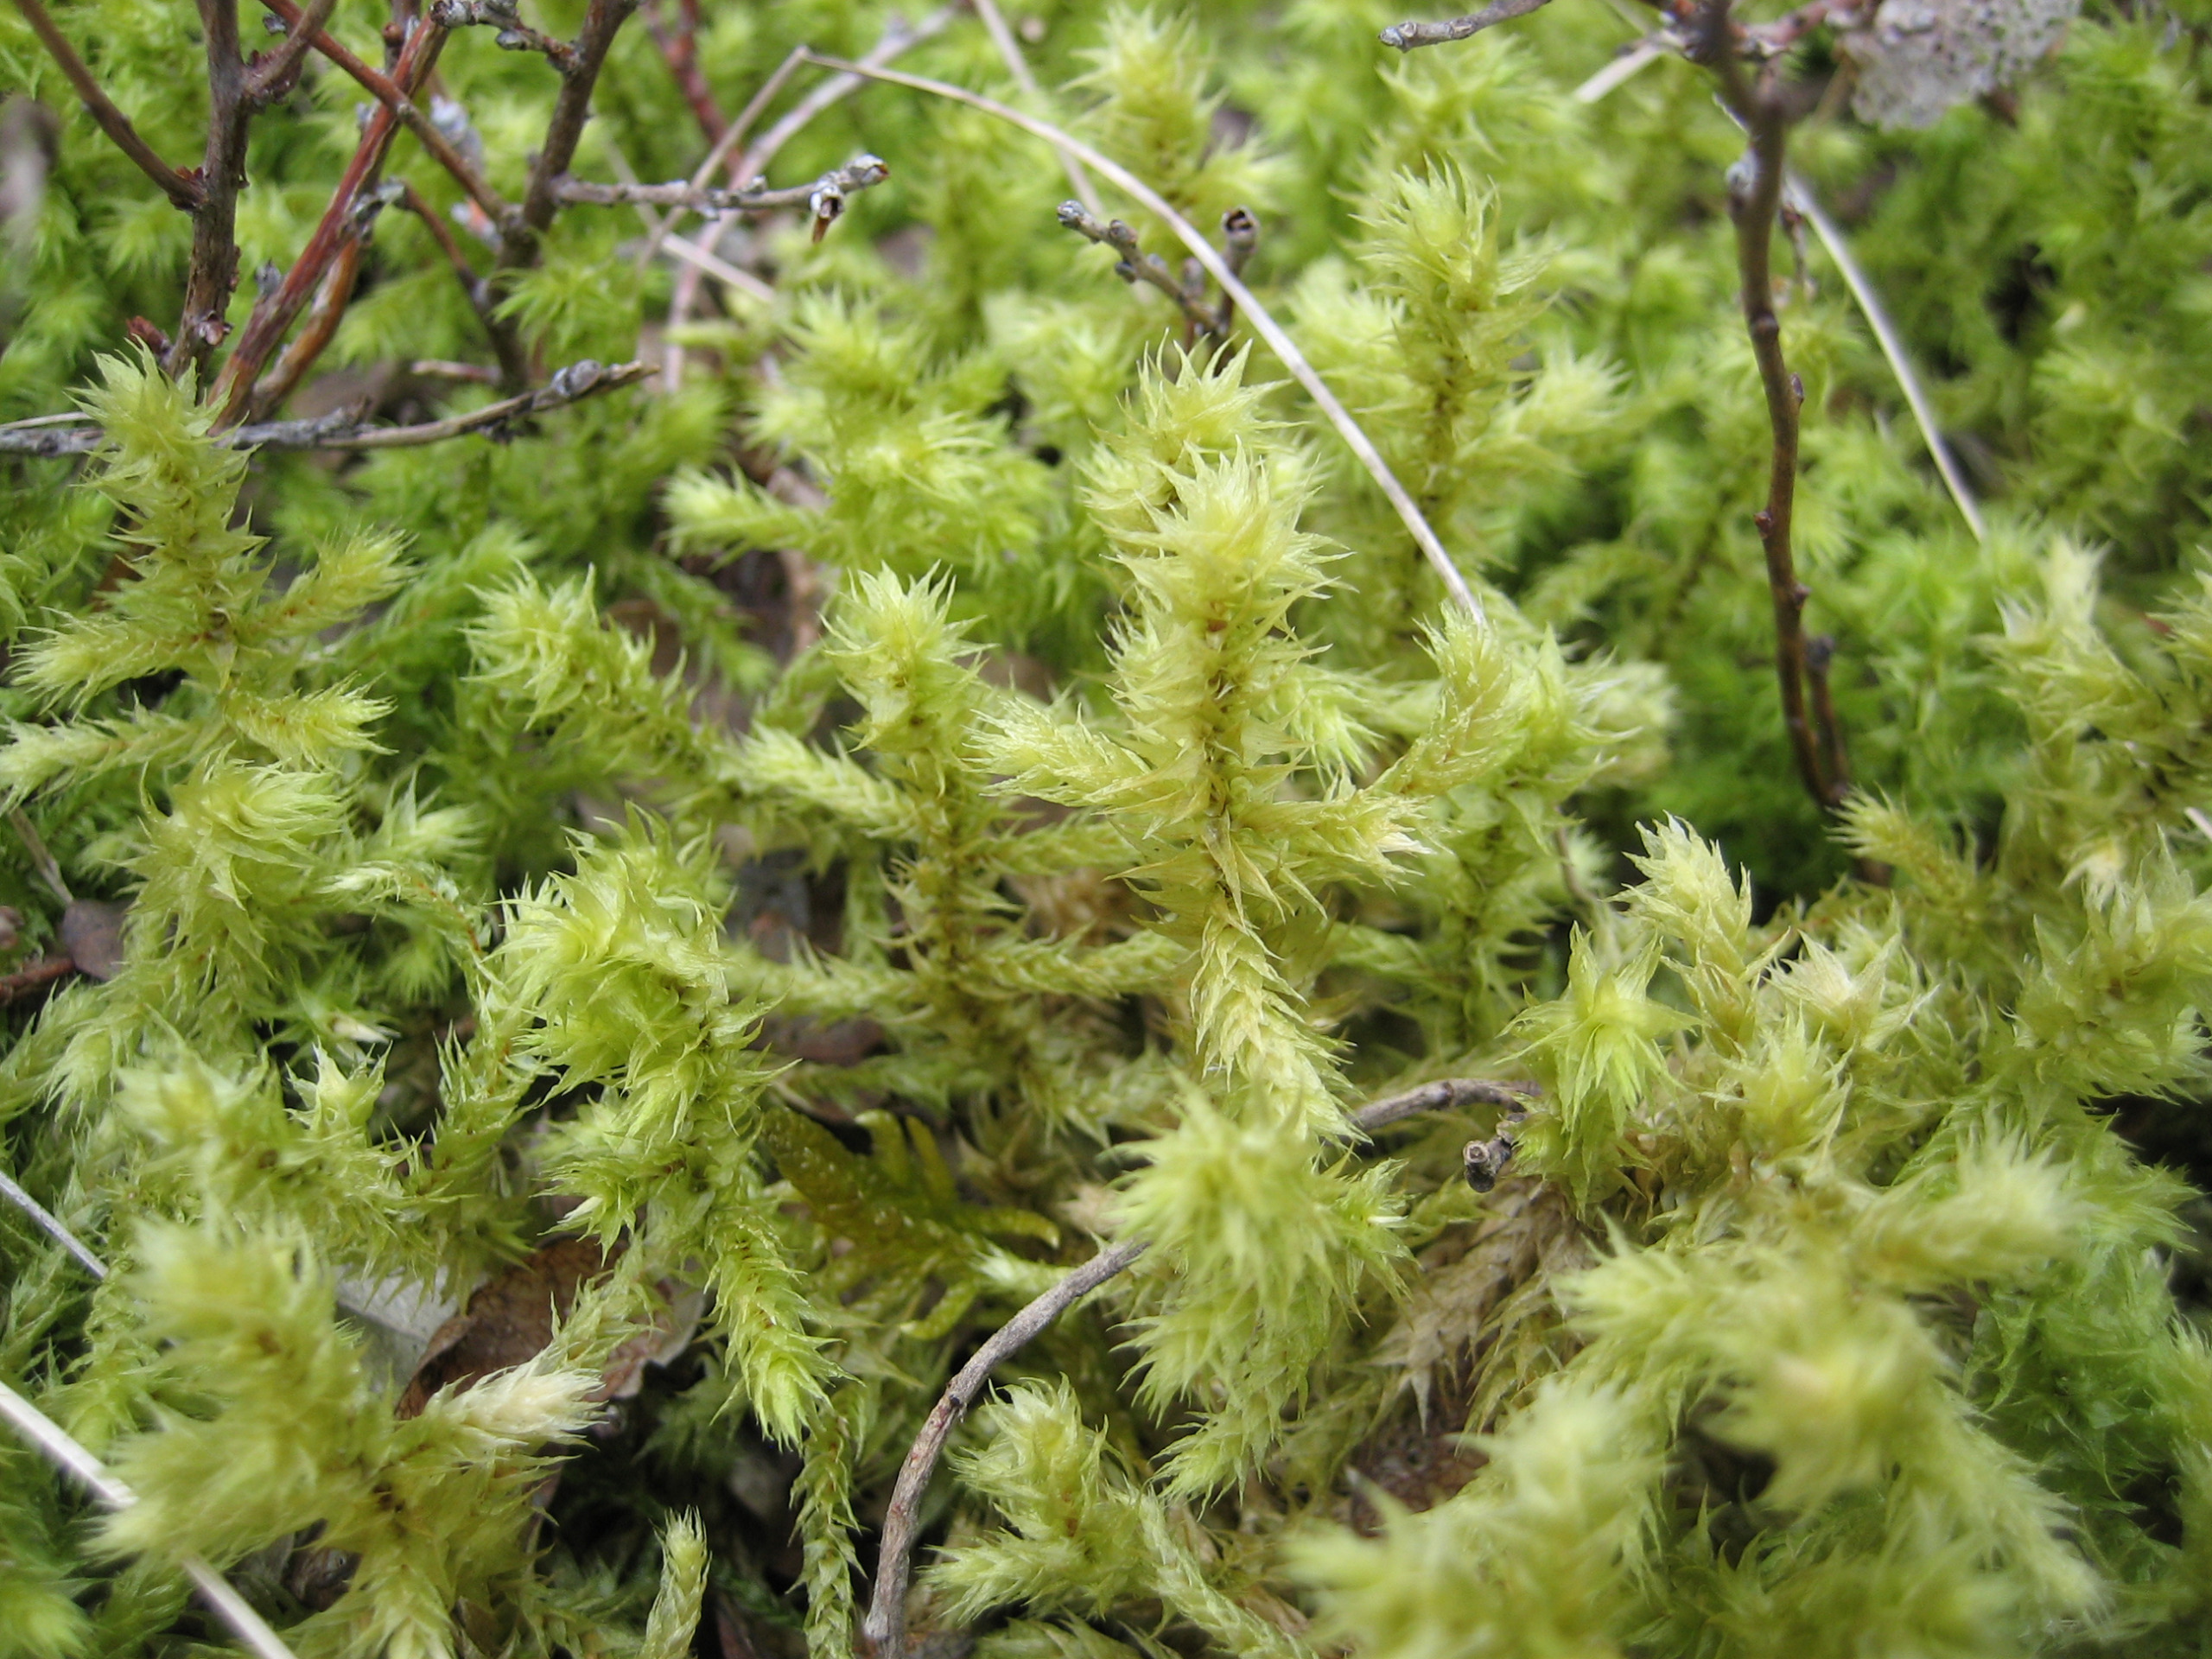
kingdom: Plantae
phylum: Bryophyta
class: Bryopsida
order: Hypnales
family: Hylocomiaceae
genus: Hylocomiadelphus
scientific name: Hylocomiadelphus triquetrus
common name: Stor kransemos
